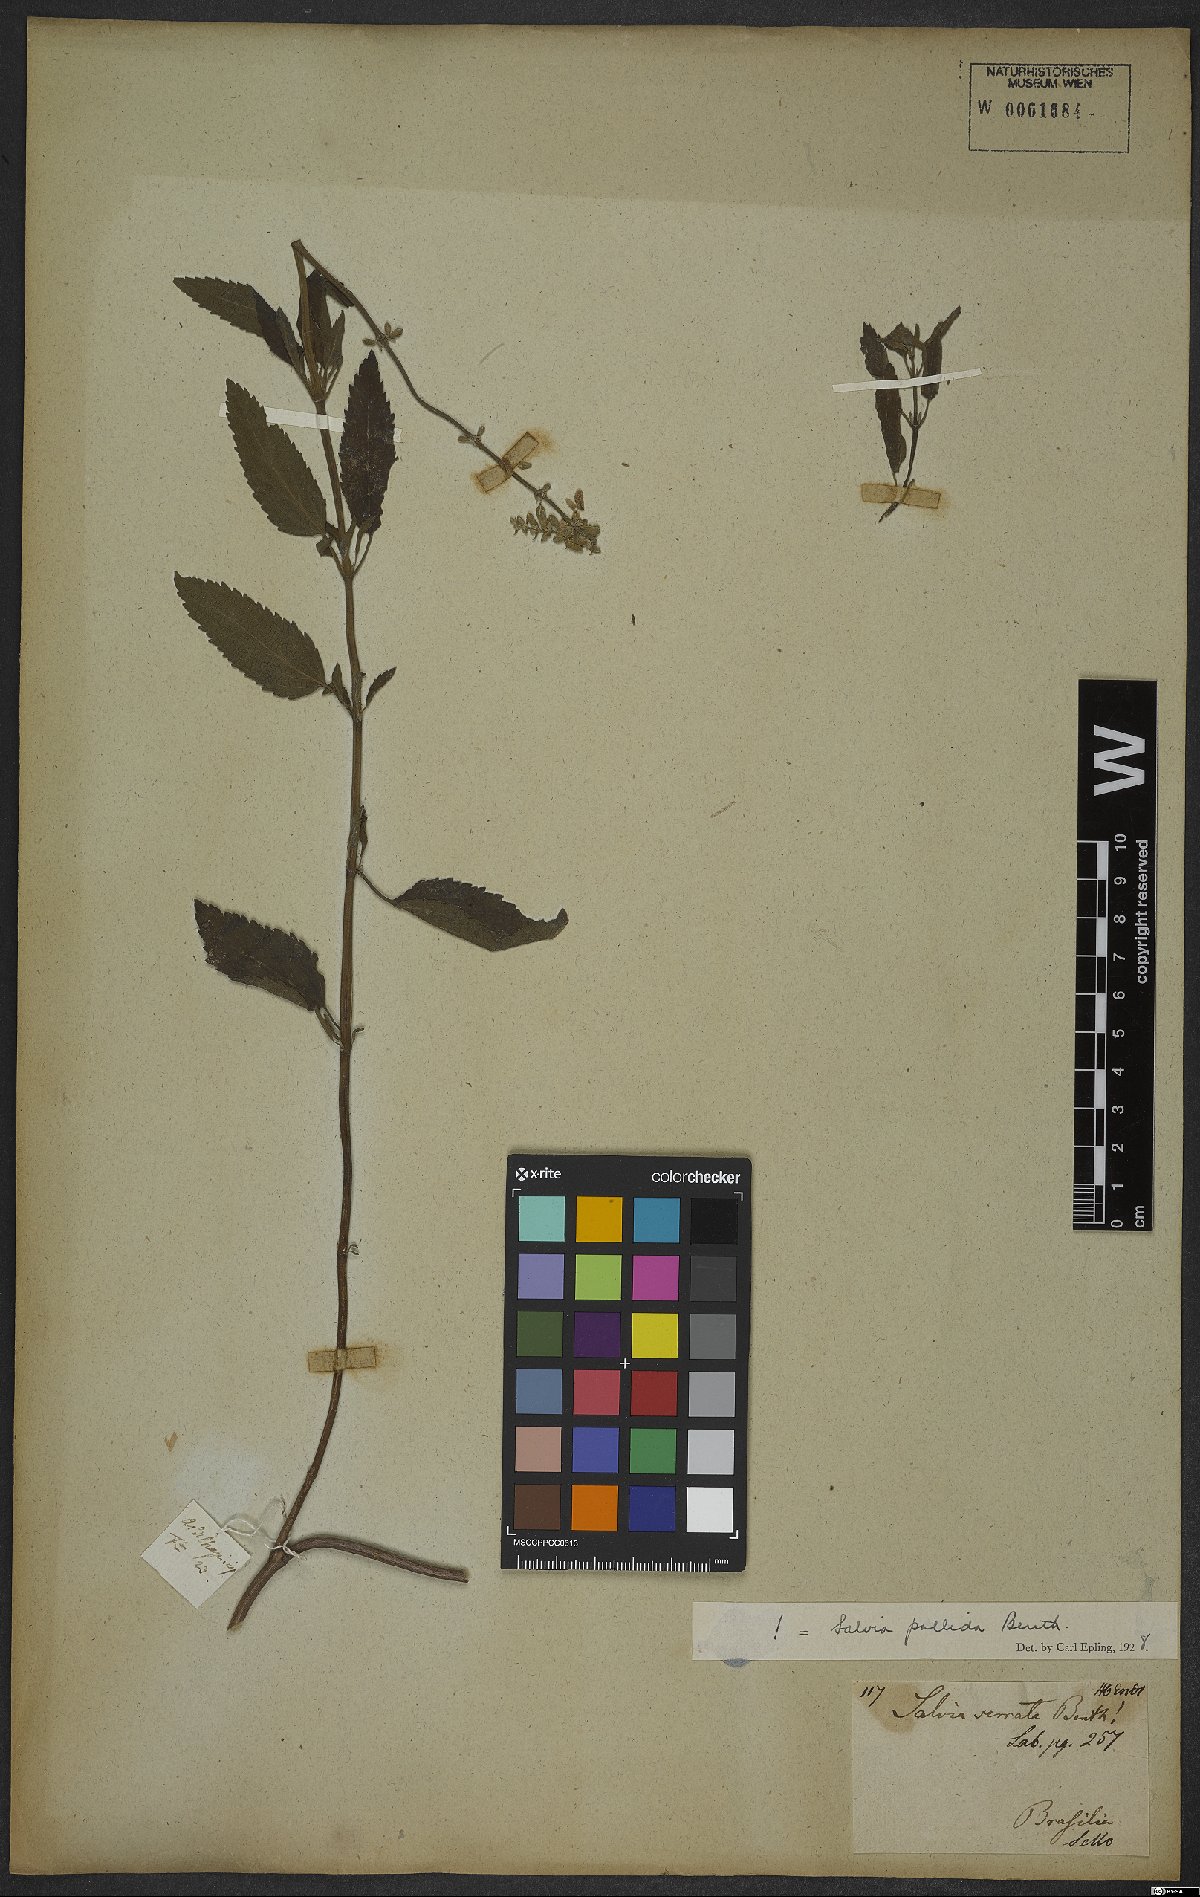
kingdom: Plantae
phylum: Tracheophyta
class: Magnoliopsida
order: Lamiales
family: Lamiaceae
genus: Salvia
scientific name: Salvia pallida
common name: Pale sage
